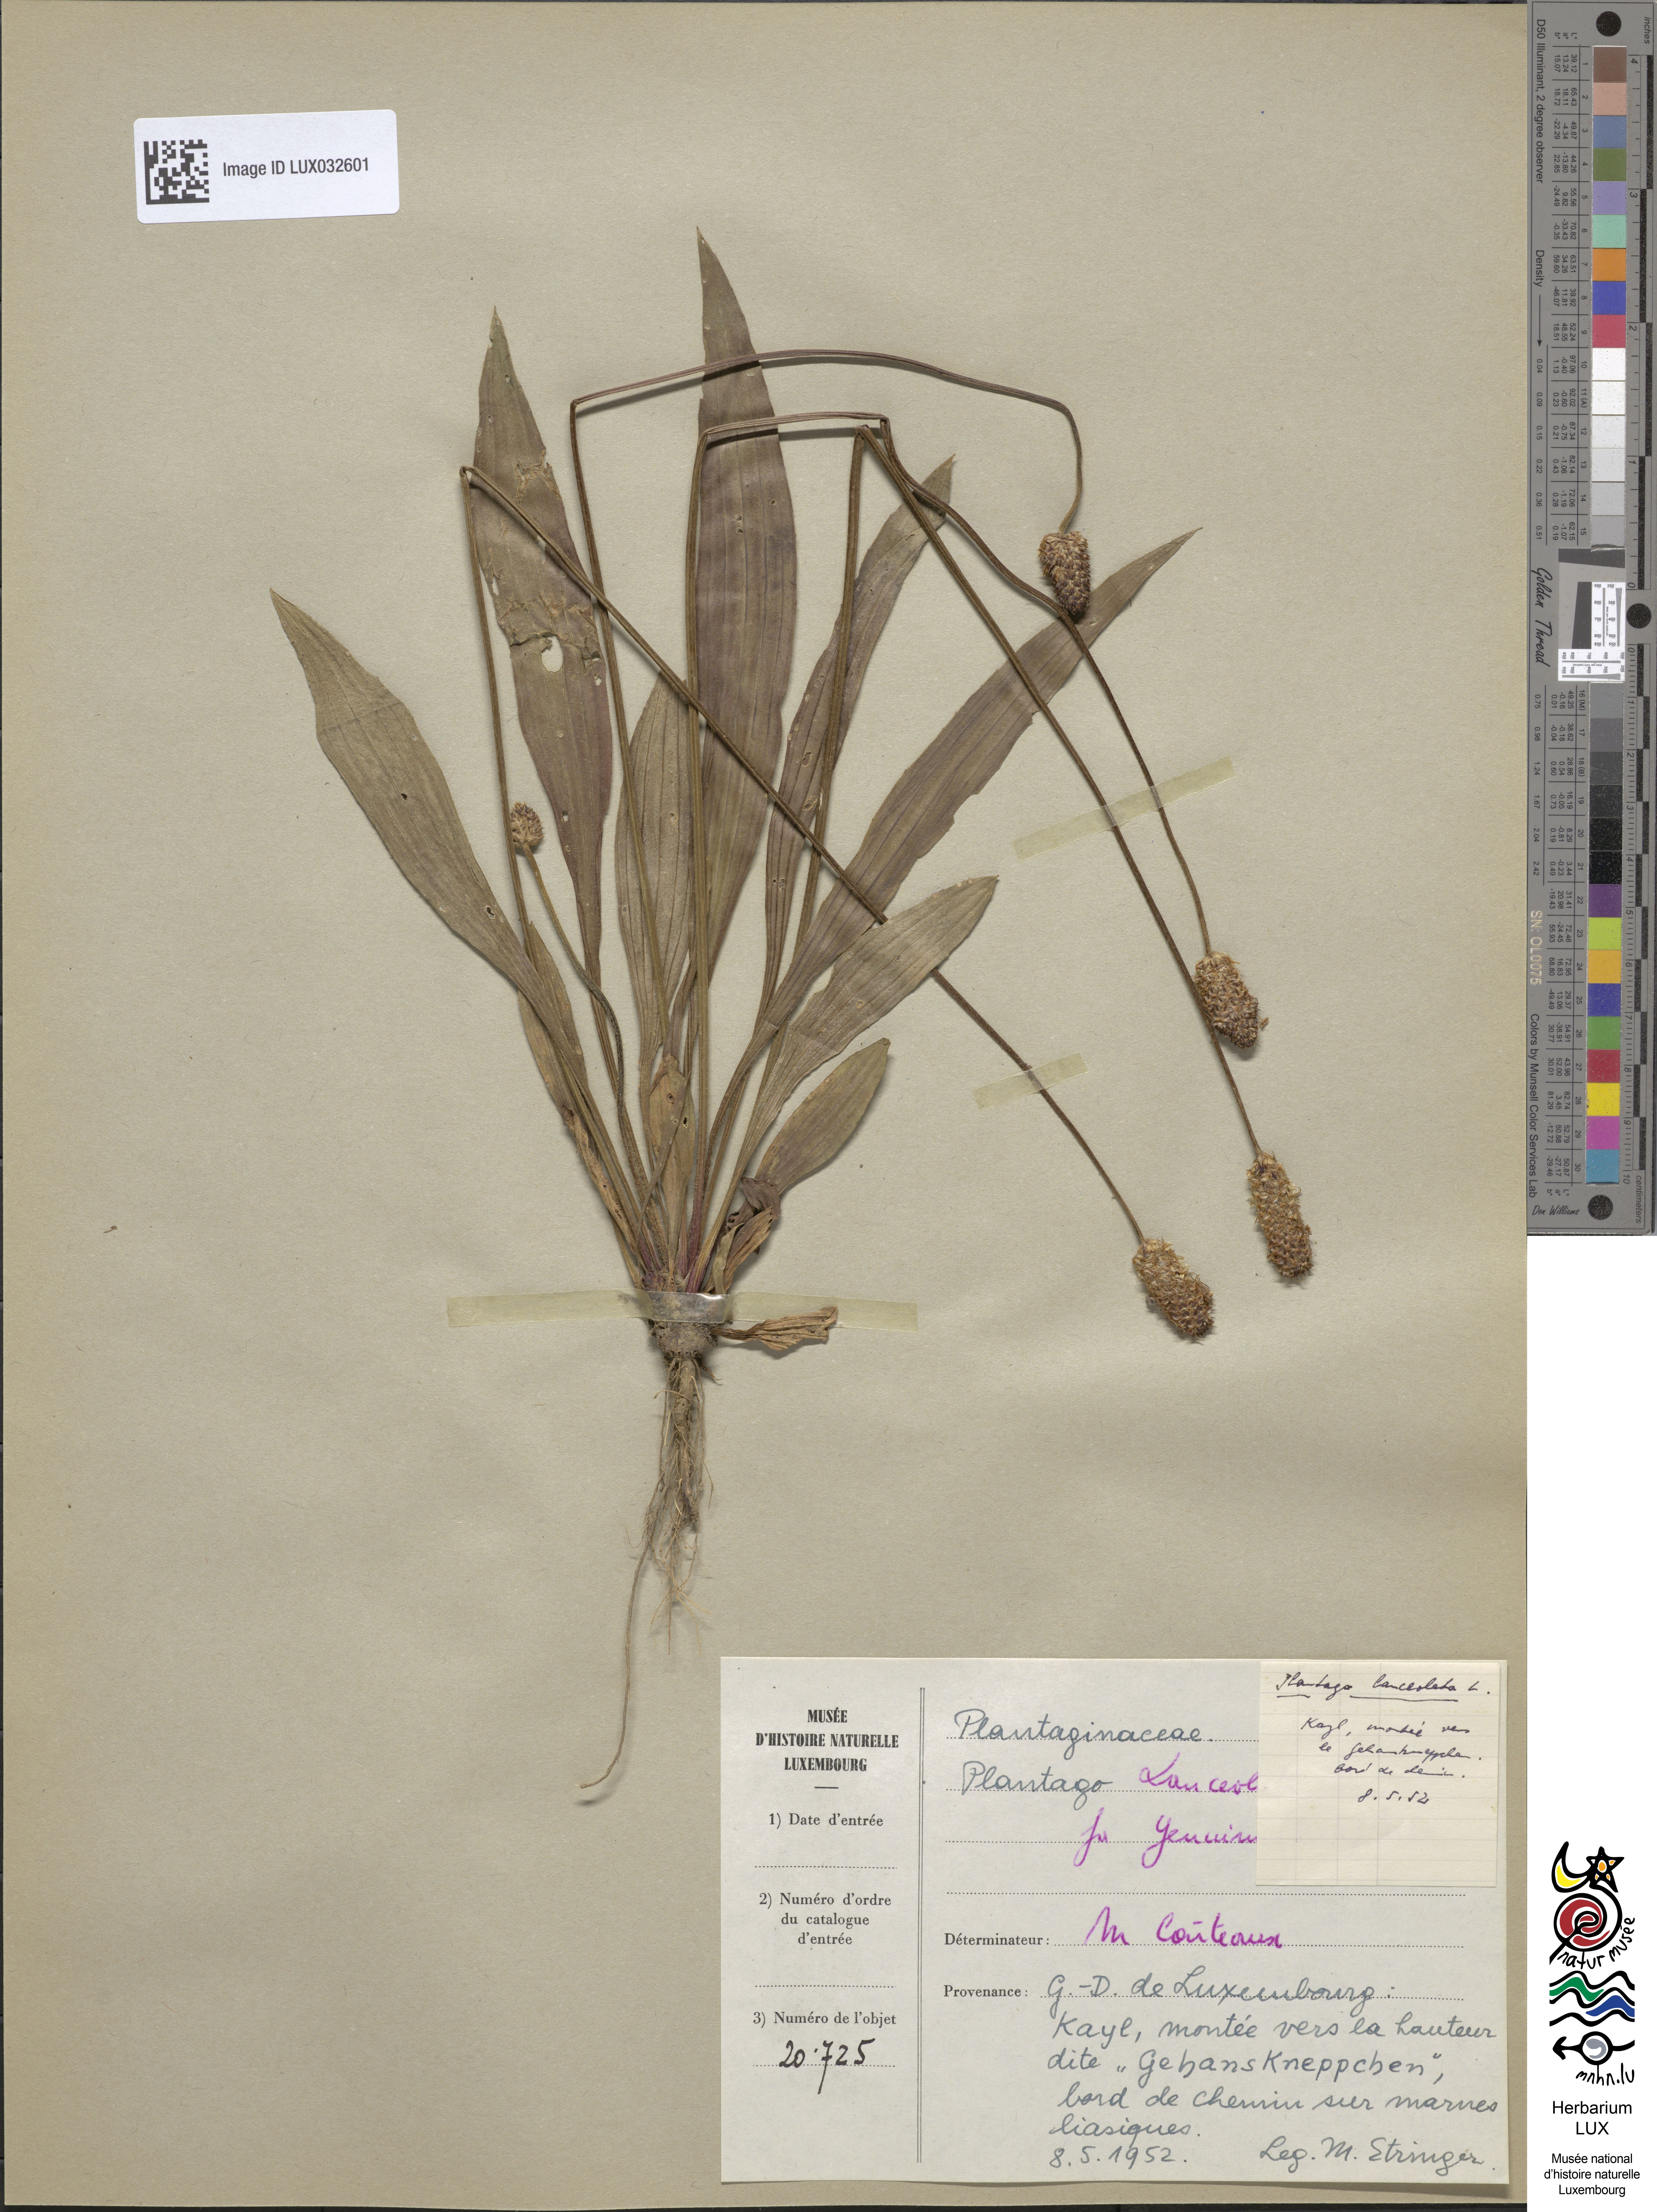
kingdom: Plantae
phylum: Tracheophyta
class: Magnoliopsida
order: Lamiales
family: Plantaginaceae
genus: Plantago
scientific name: Plantago lanceolata
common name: Ribwort plantain
